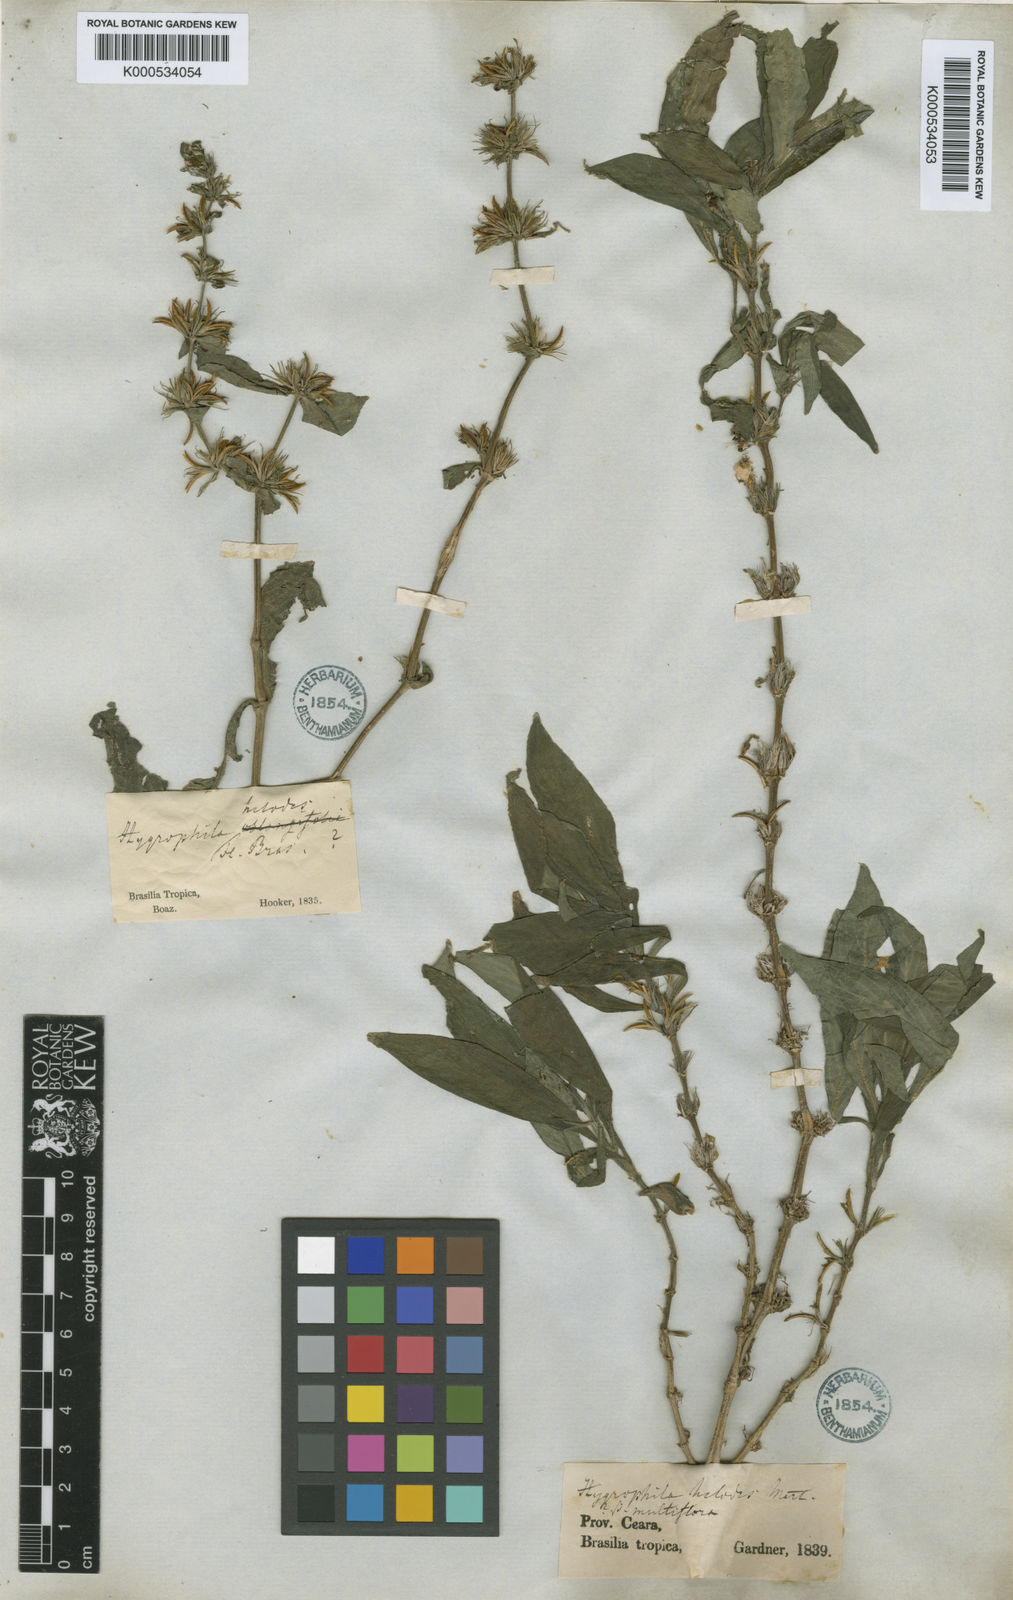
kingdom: Plantae
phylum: Tracheophyta
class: Magnoliopsida
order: Lamiales
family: Acanthaceae
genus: Hygrophila
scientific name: Hygrophila costata
